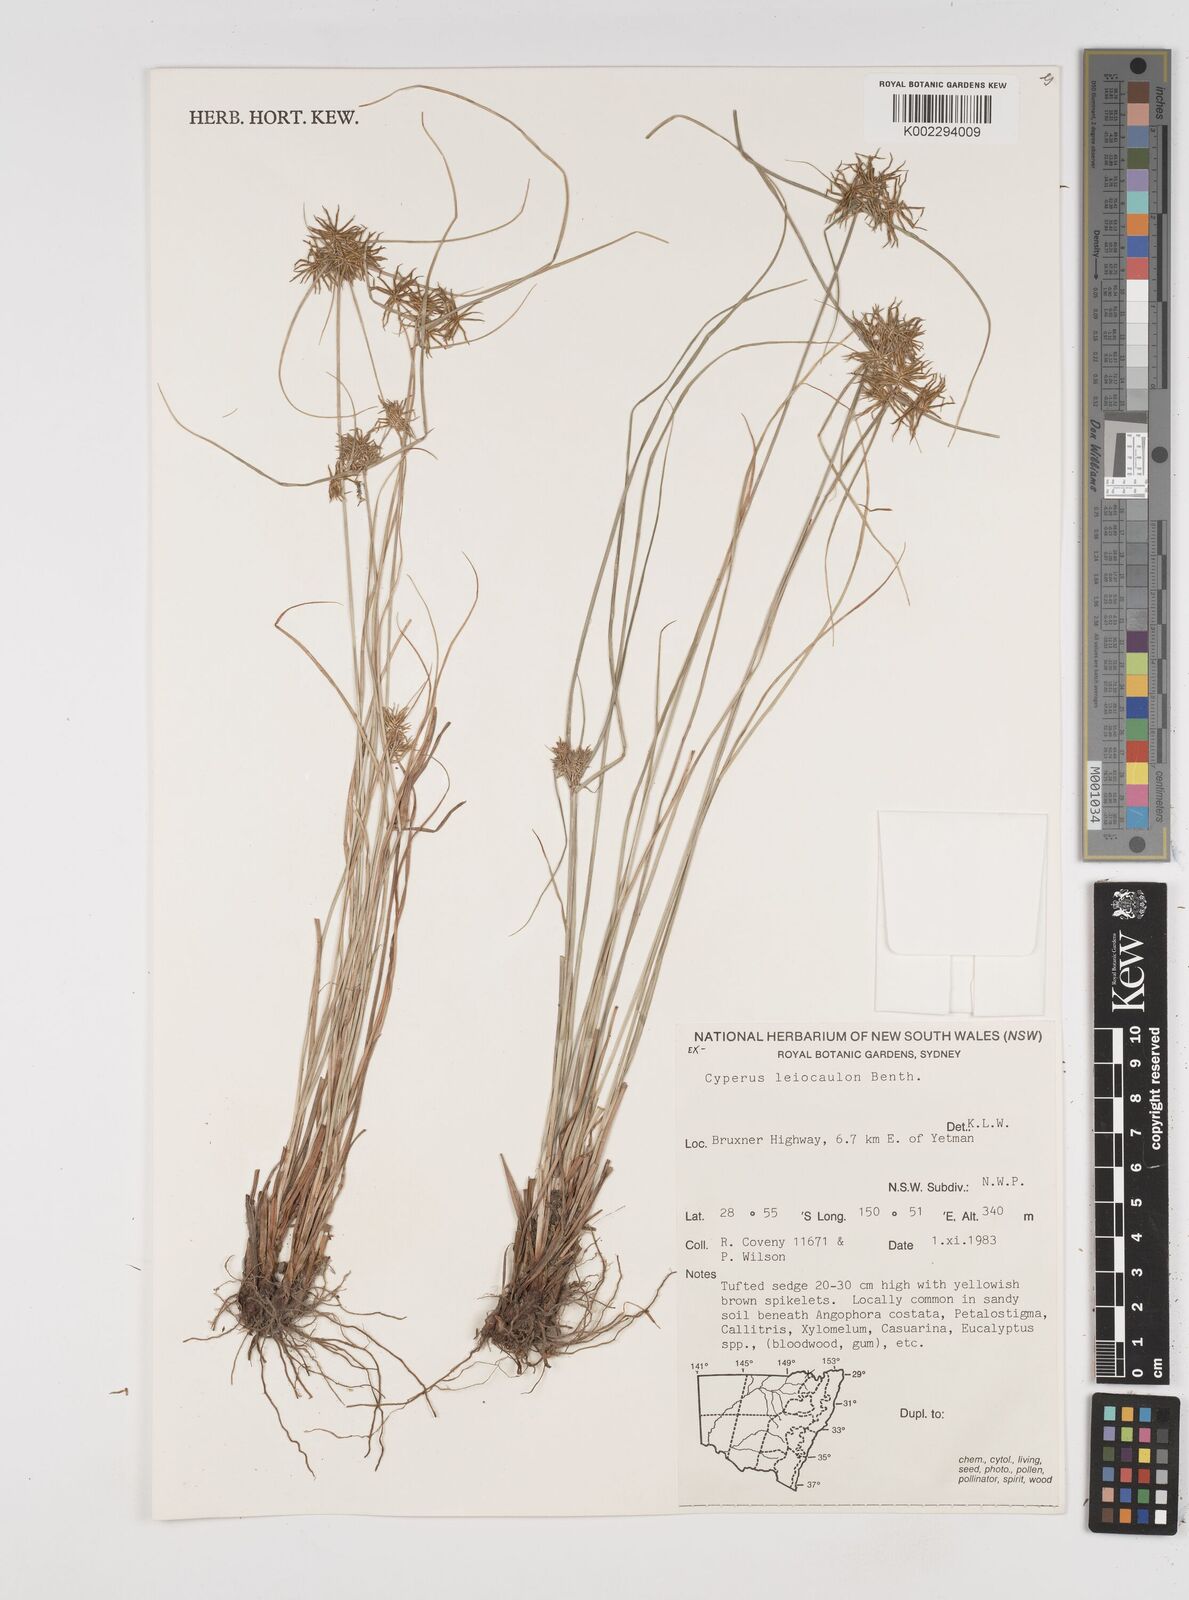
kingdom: Plantae
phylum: Tracheophyta
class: Liliopsida
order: Poales
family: Cyperaceae
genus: Cyperus
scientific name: Cyperus leiocaulon
